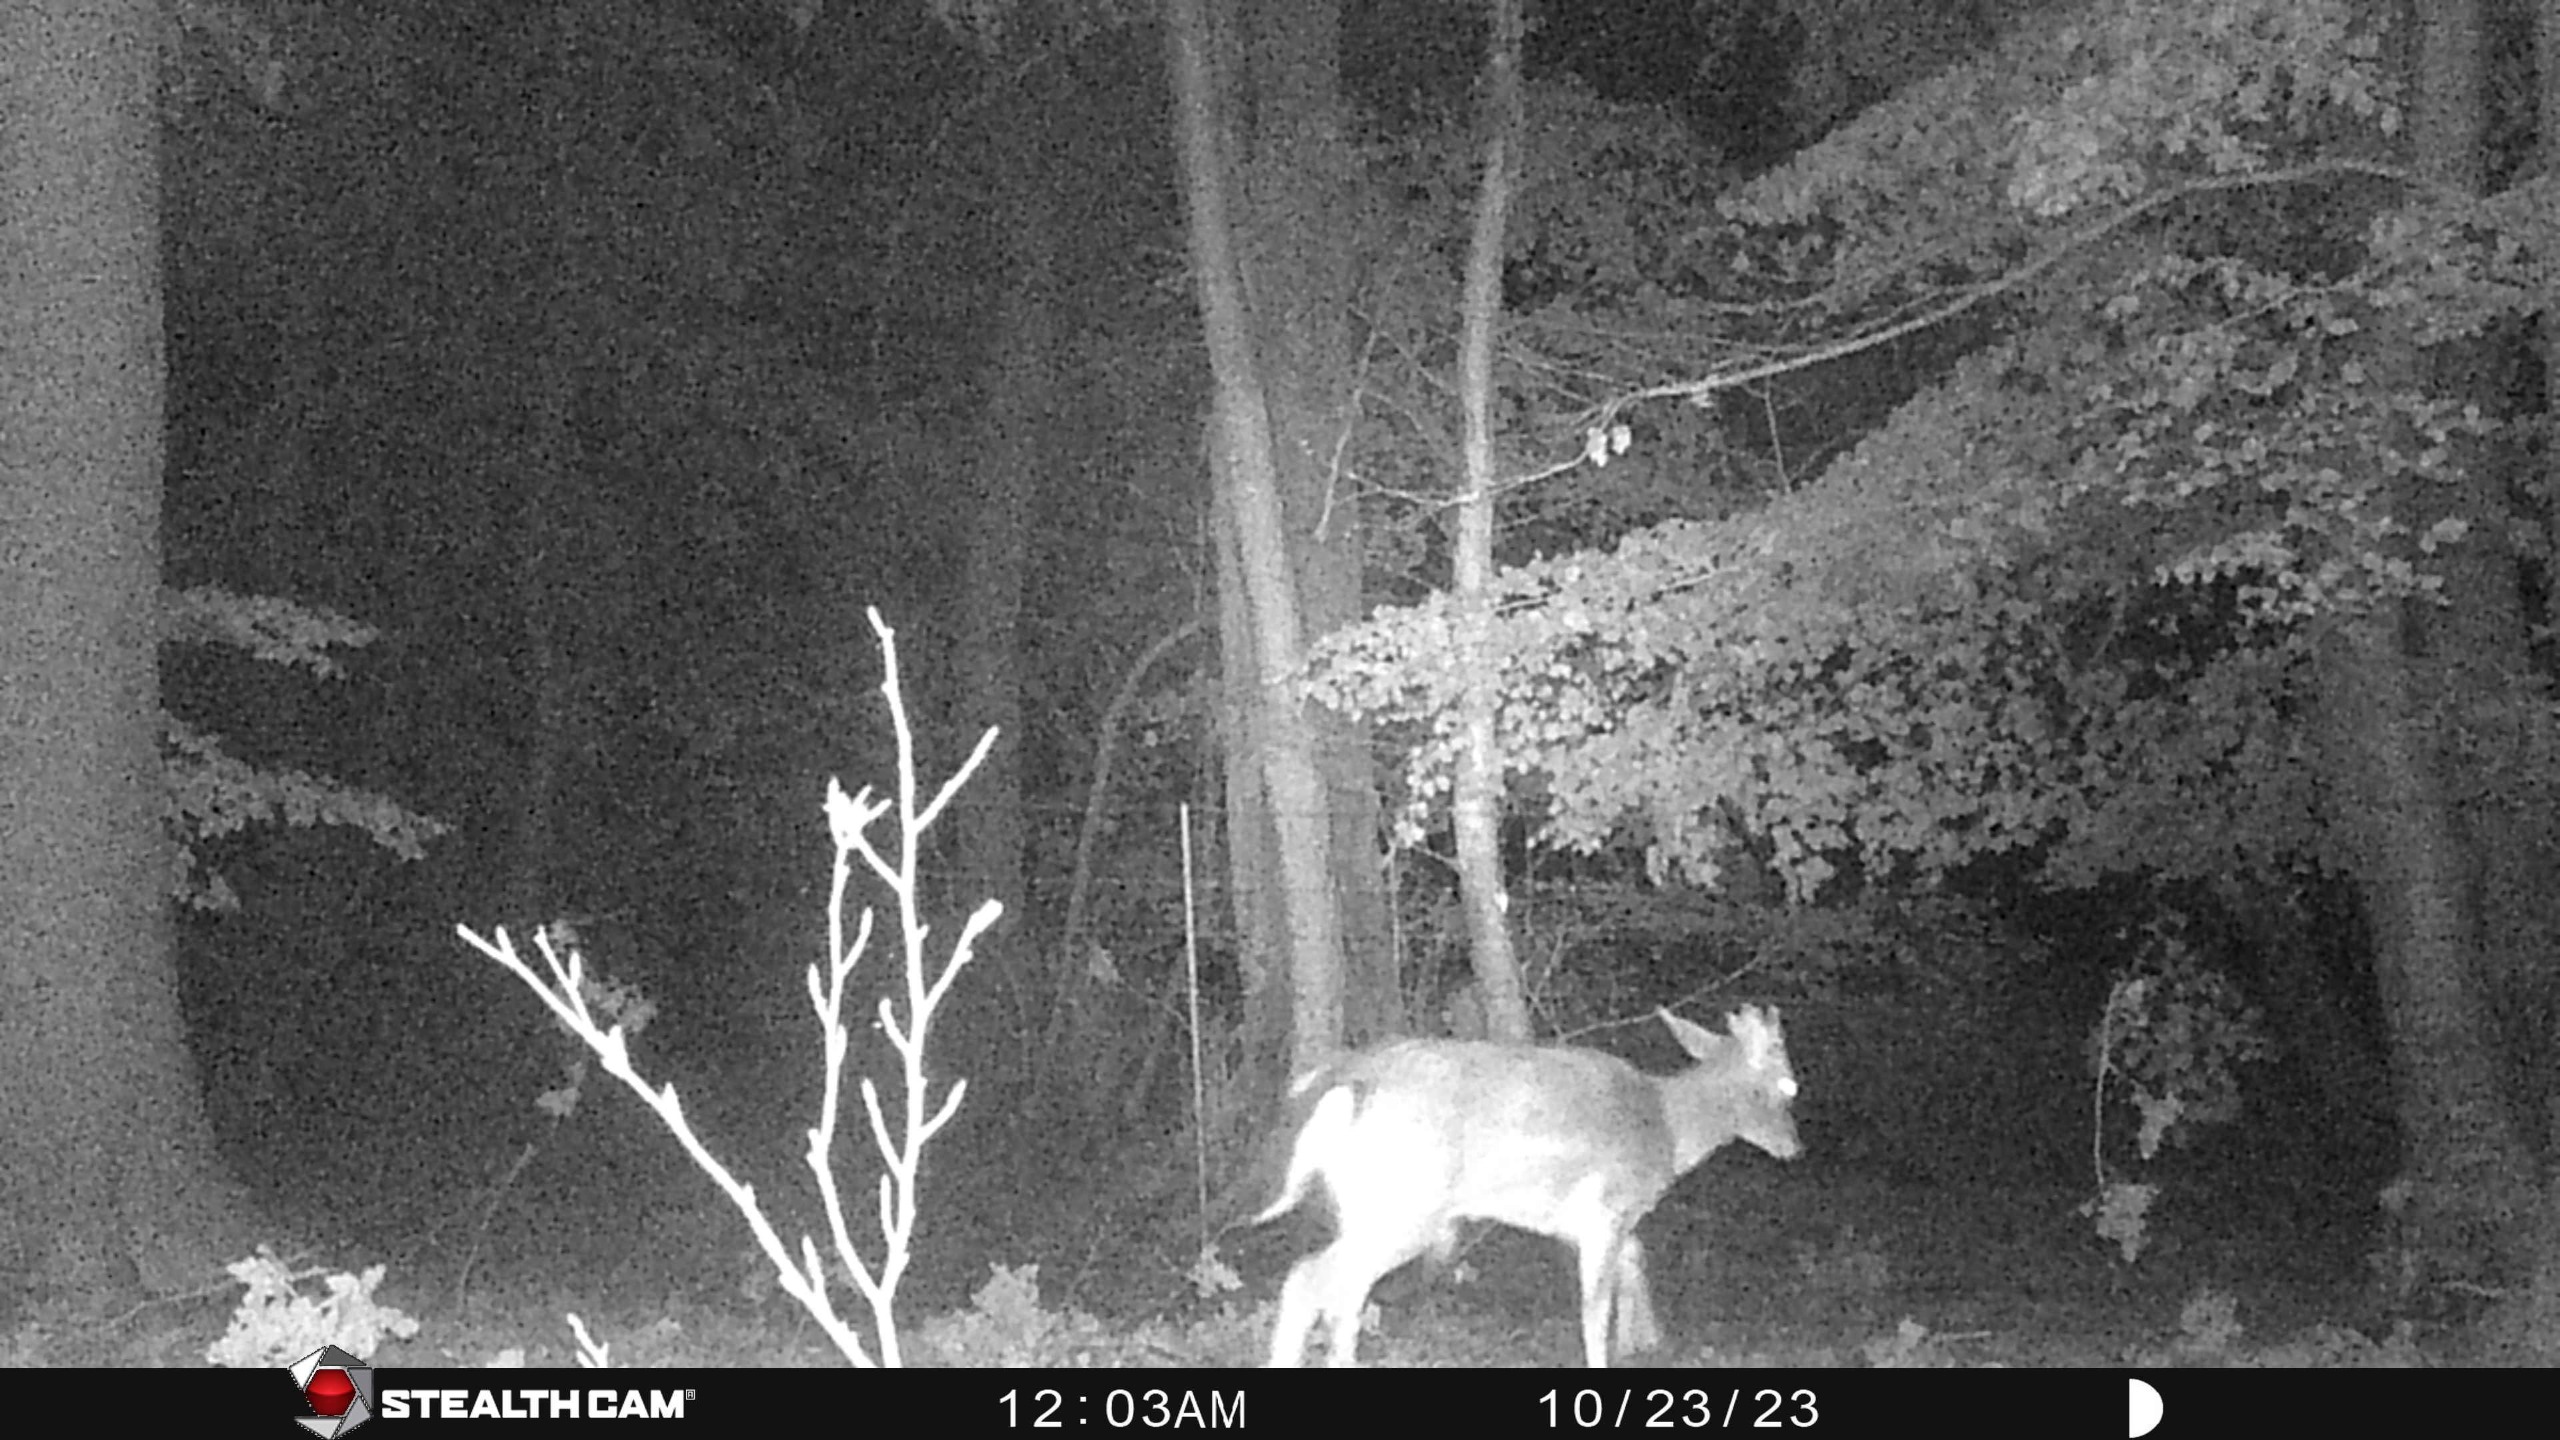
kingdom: Animalia
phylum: Chordata
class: Mammalia
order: Artiodactyla
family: Cervidae
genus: Dama
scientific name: Dama dama
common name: Dådyr
